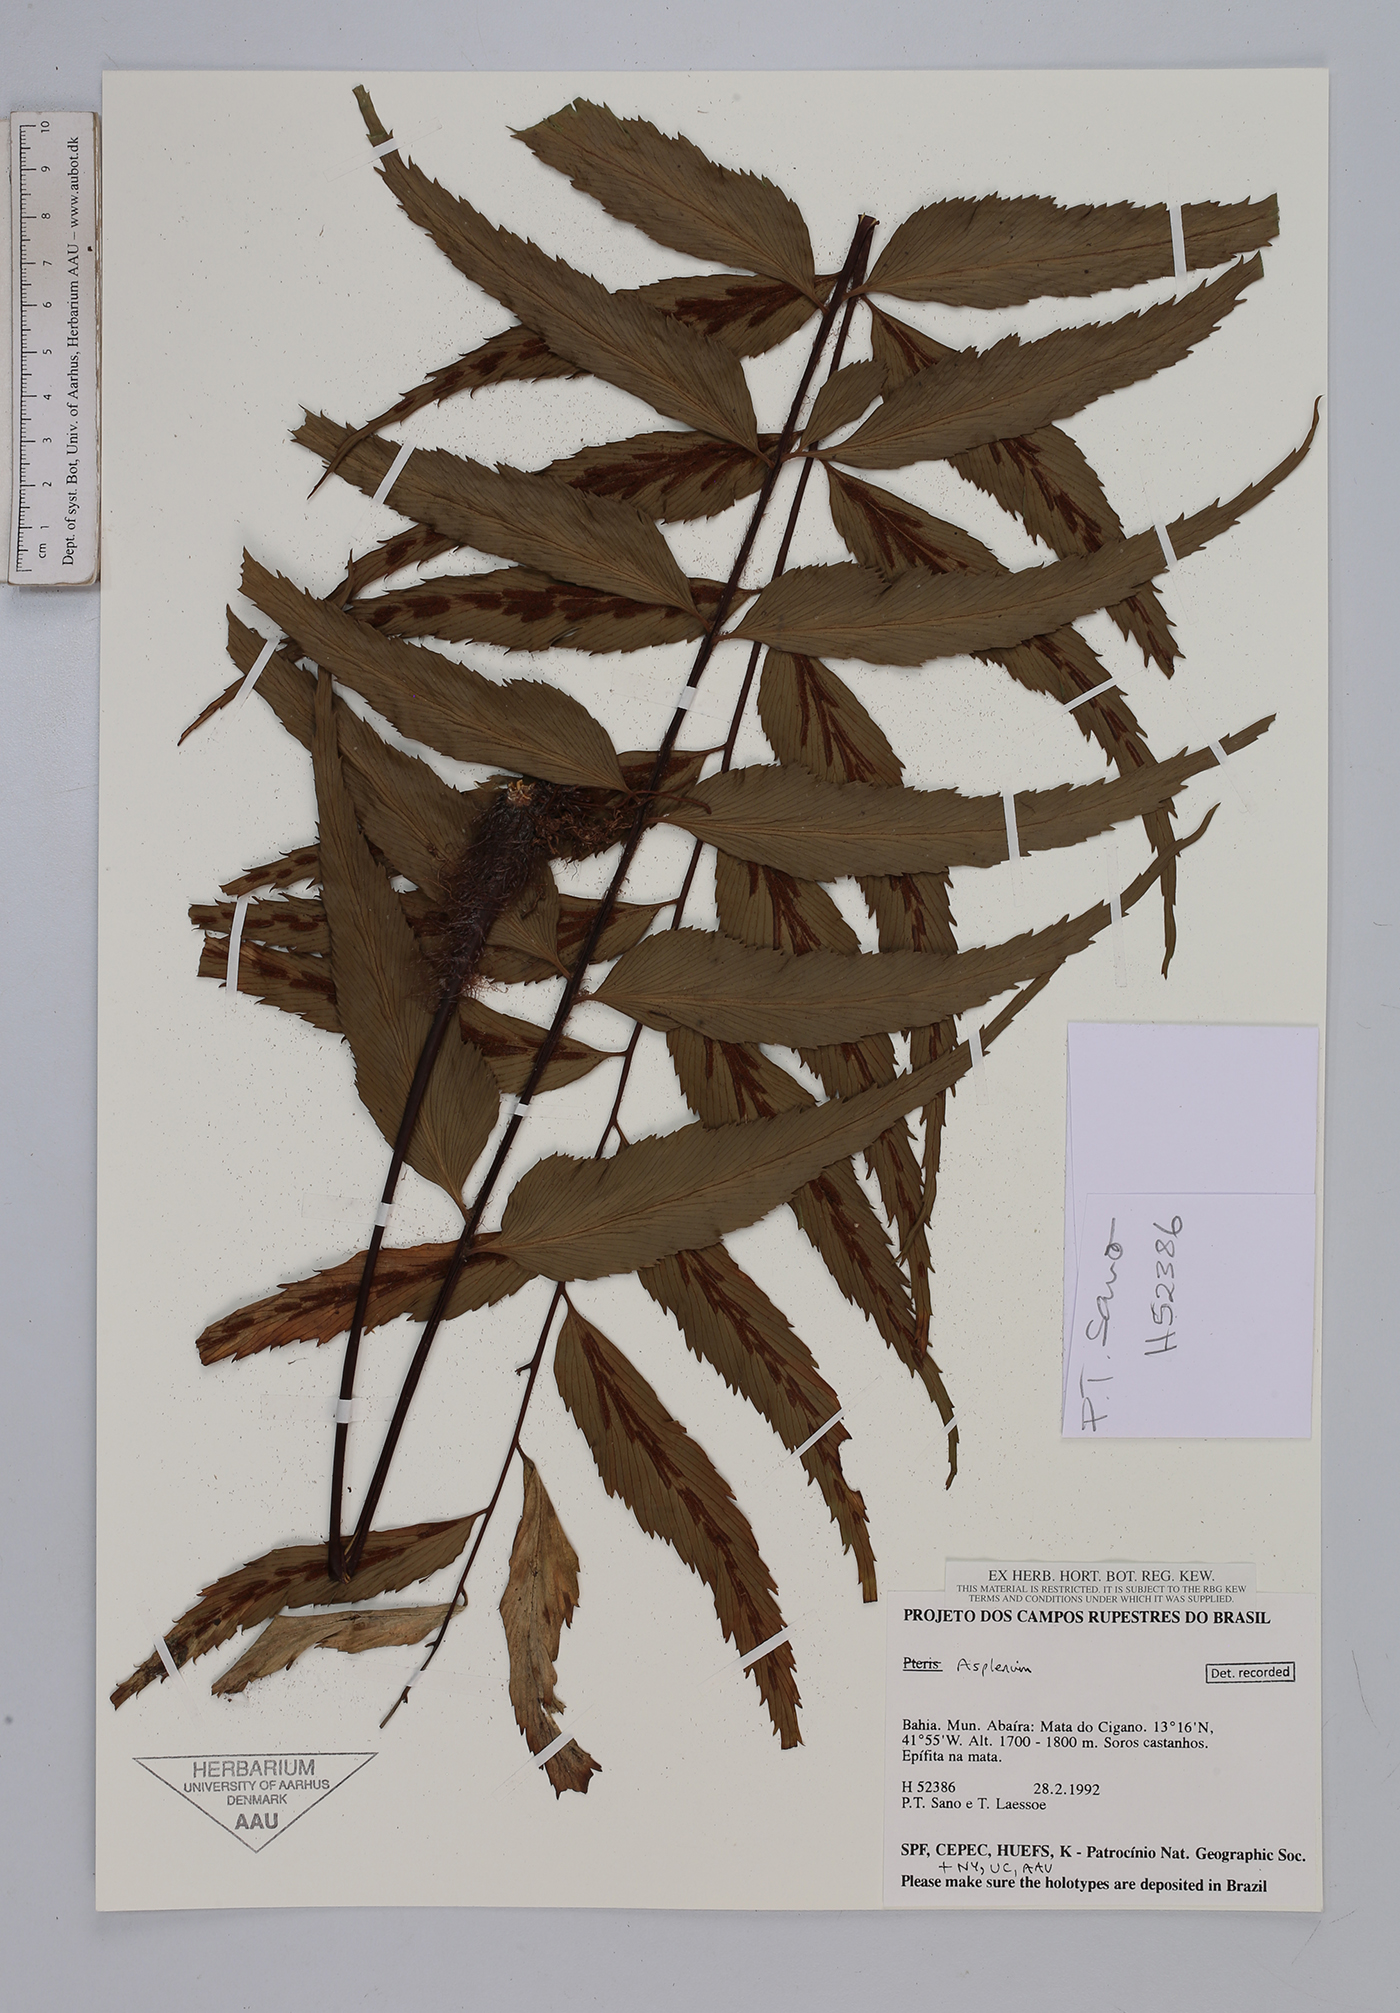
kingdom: Plantae
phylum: Tracheophyta
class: Polypodiopsida
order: Polypodiales
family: Aspleniaceae
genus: Asplenium
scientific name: Asplenium
